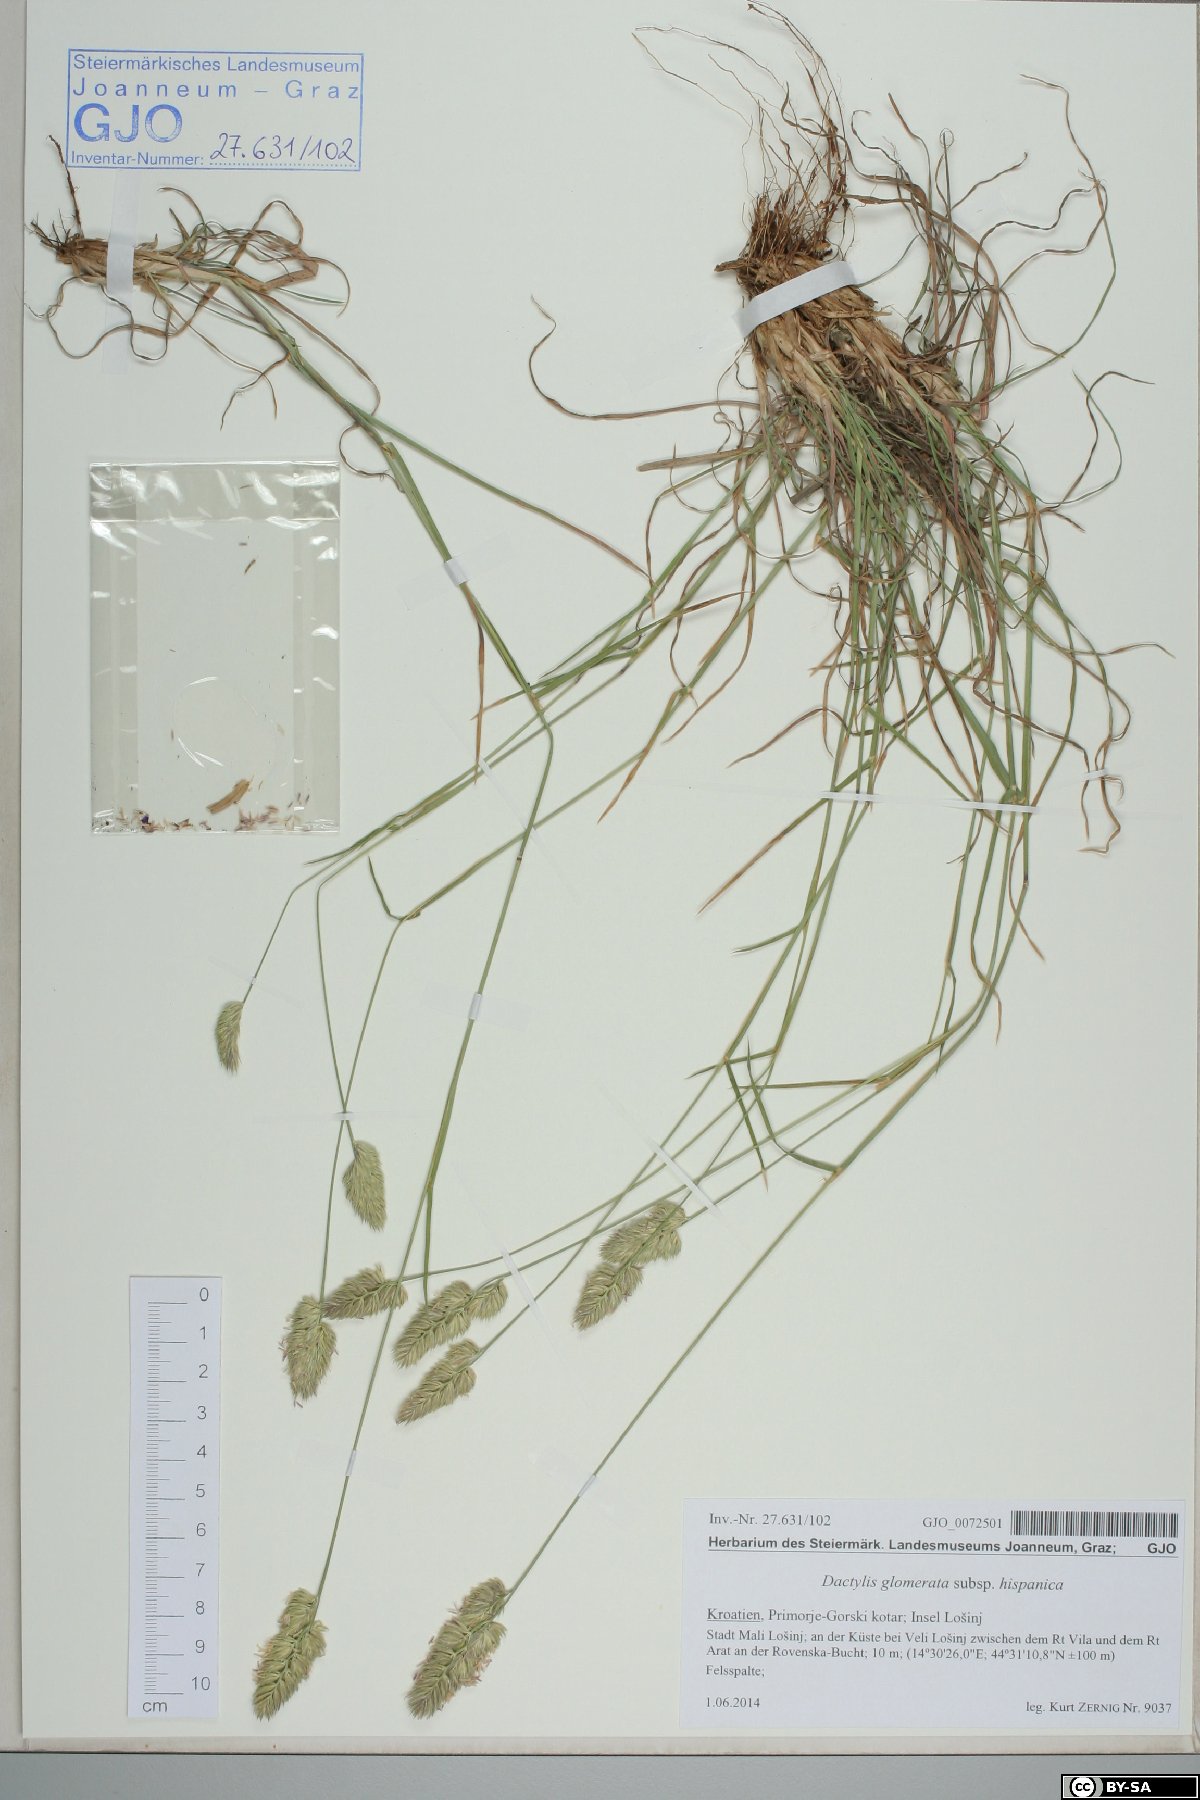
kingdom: Plantae
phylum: Tracheophyta
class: Liliopsida
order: Poales
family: Poaceae
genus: Dactylis
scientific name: Dactylis glomerata
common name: Orchardgrass
